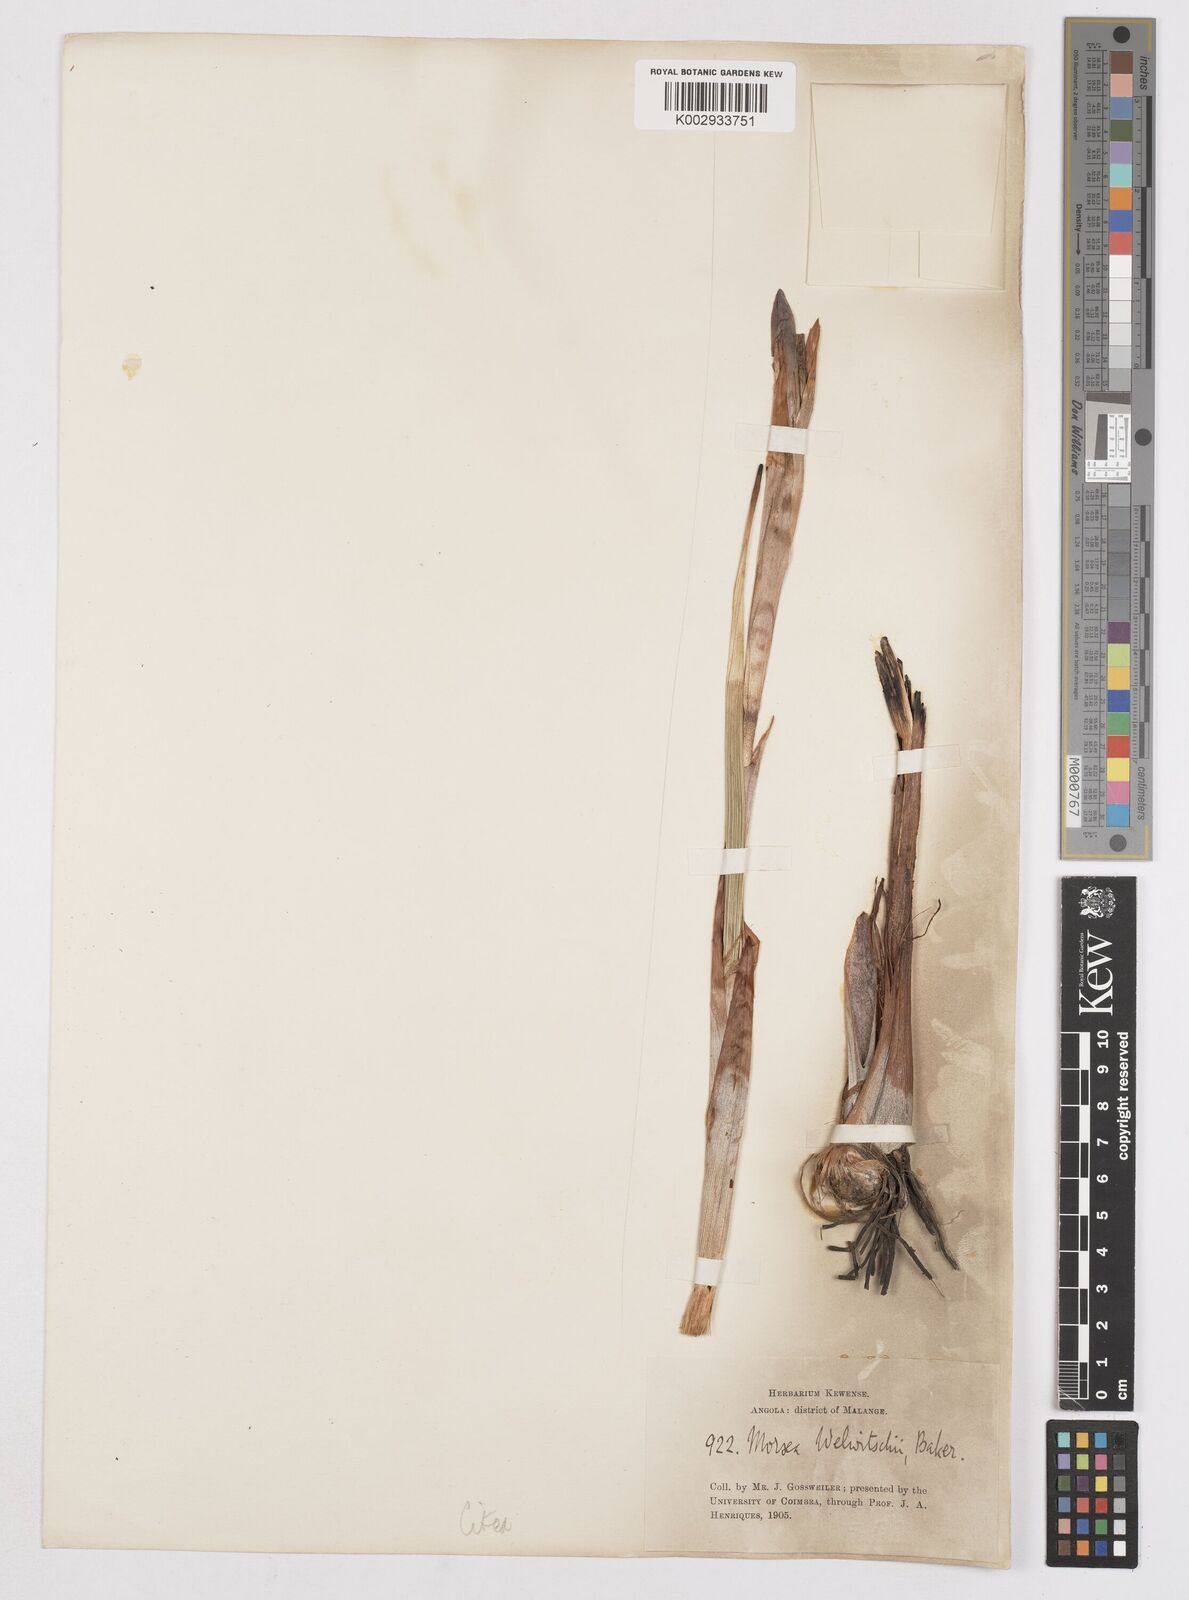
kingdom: Plantae
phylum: Tracheophyta
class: Liliopsida
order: Asparagales
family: Iridaceae
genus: Moraea
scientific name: Moraea schimperi
